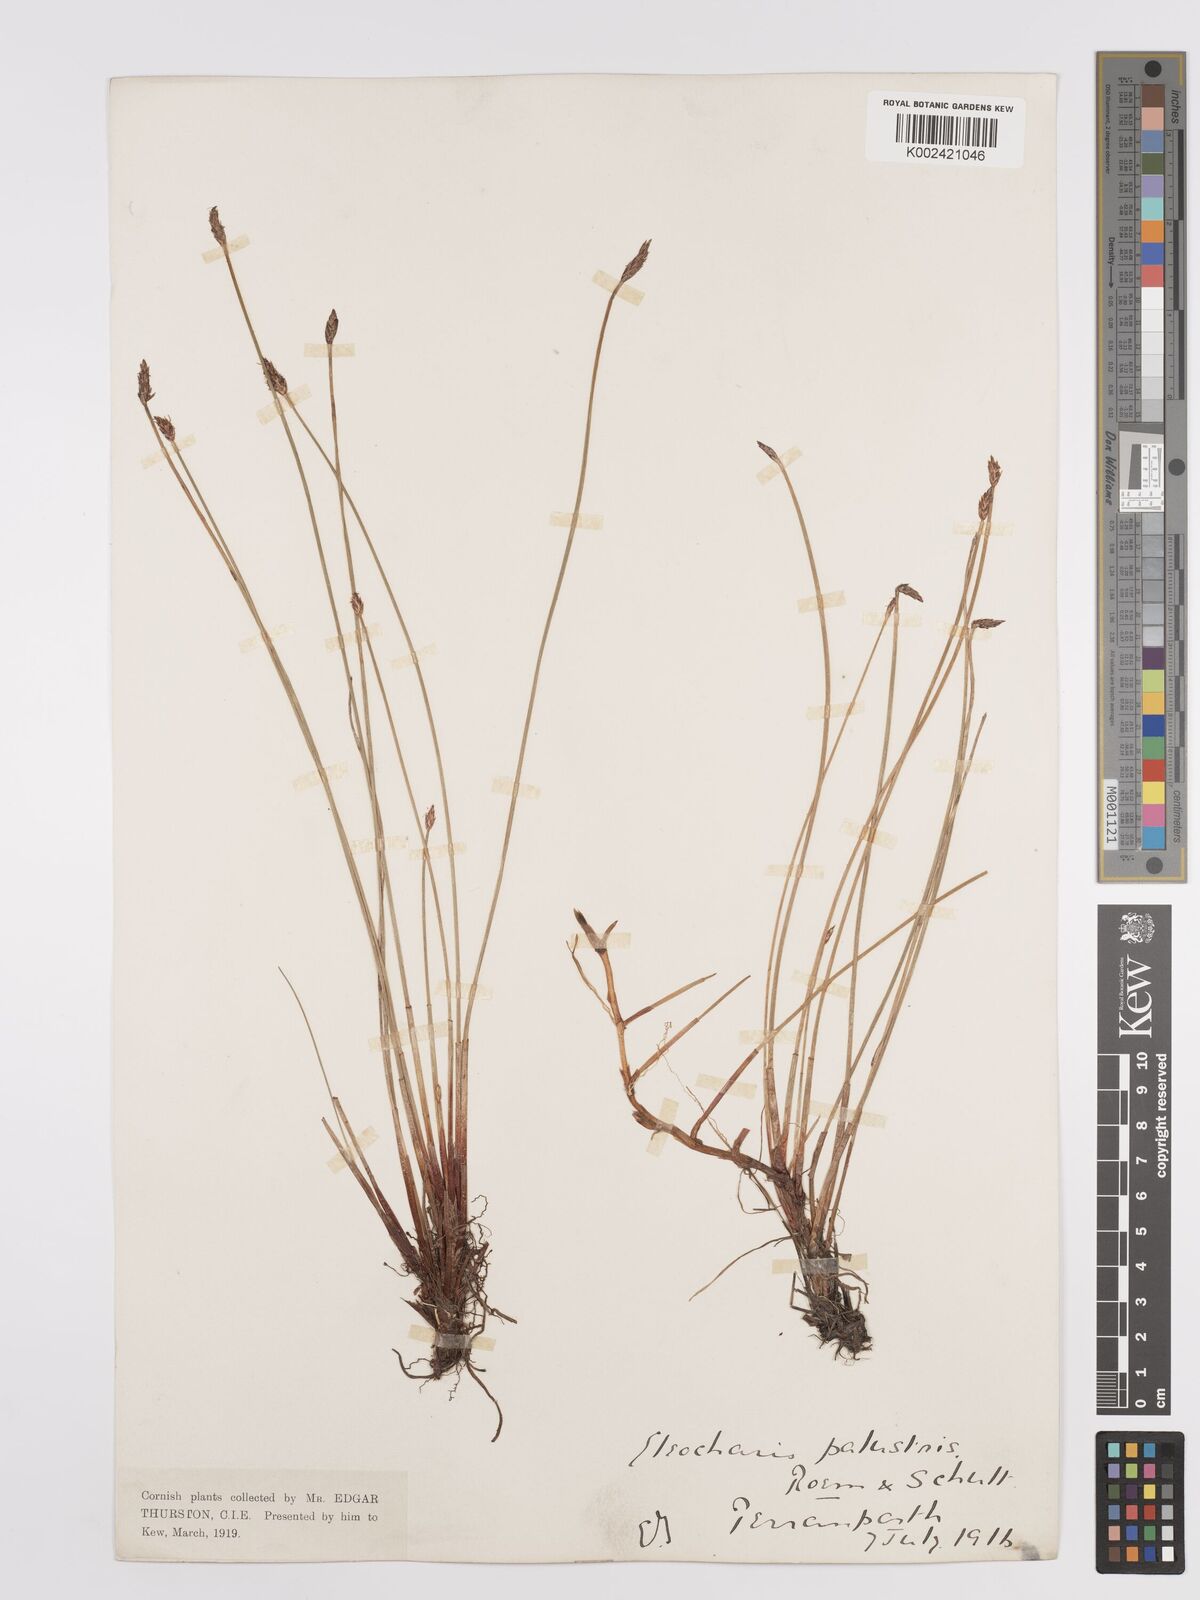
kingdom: Plantae
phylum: Tracheophyta
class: Liliopsida
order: Poales
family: Cyperaceae
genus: Eleocharis
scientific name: Eleocharis palustris
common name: Common spike-rush
